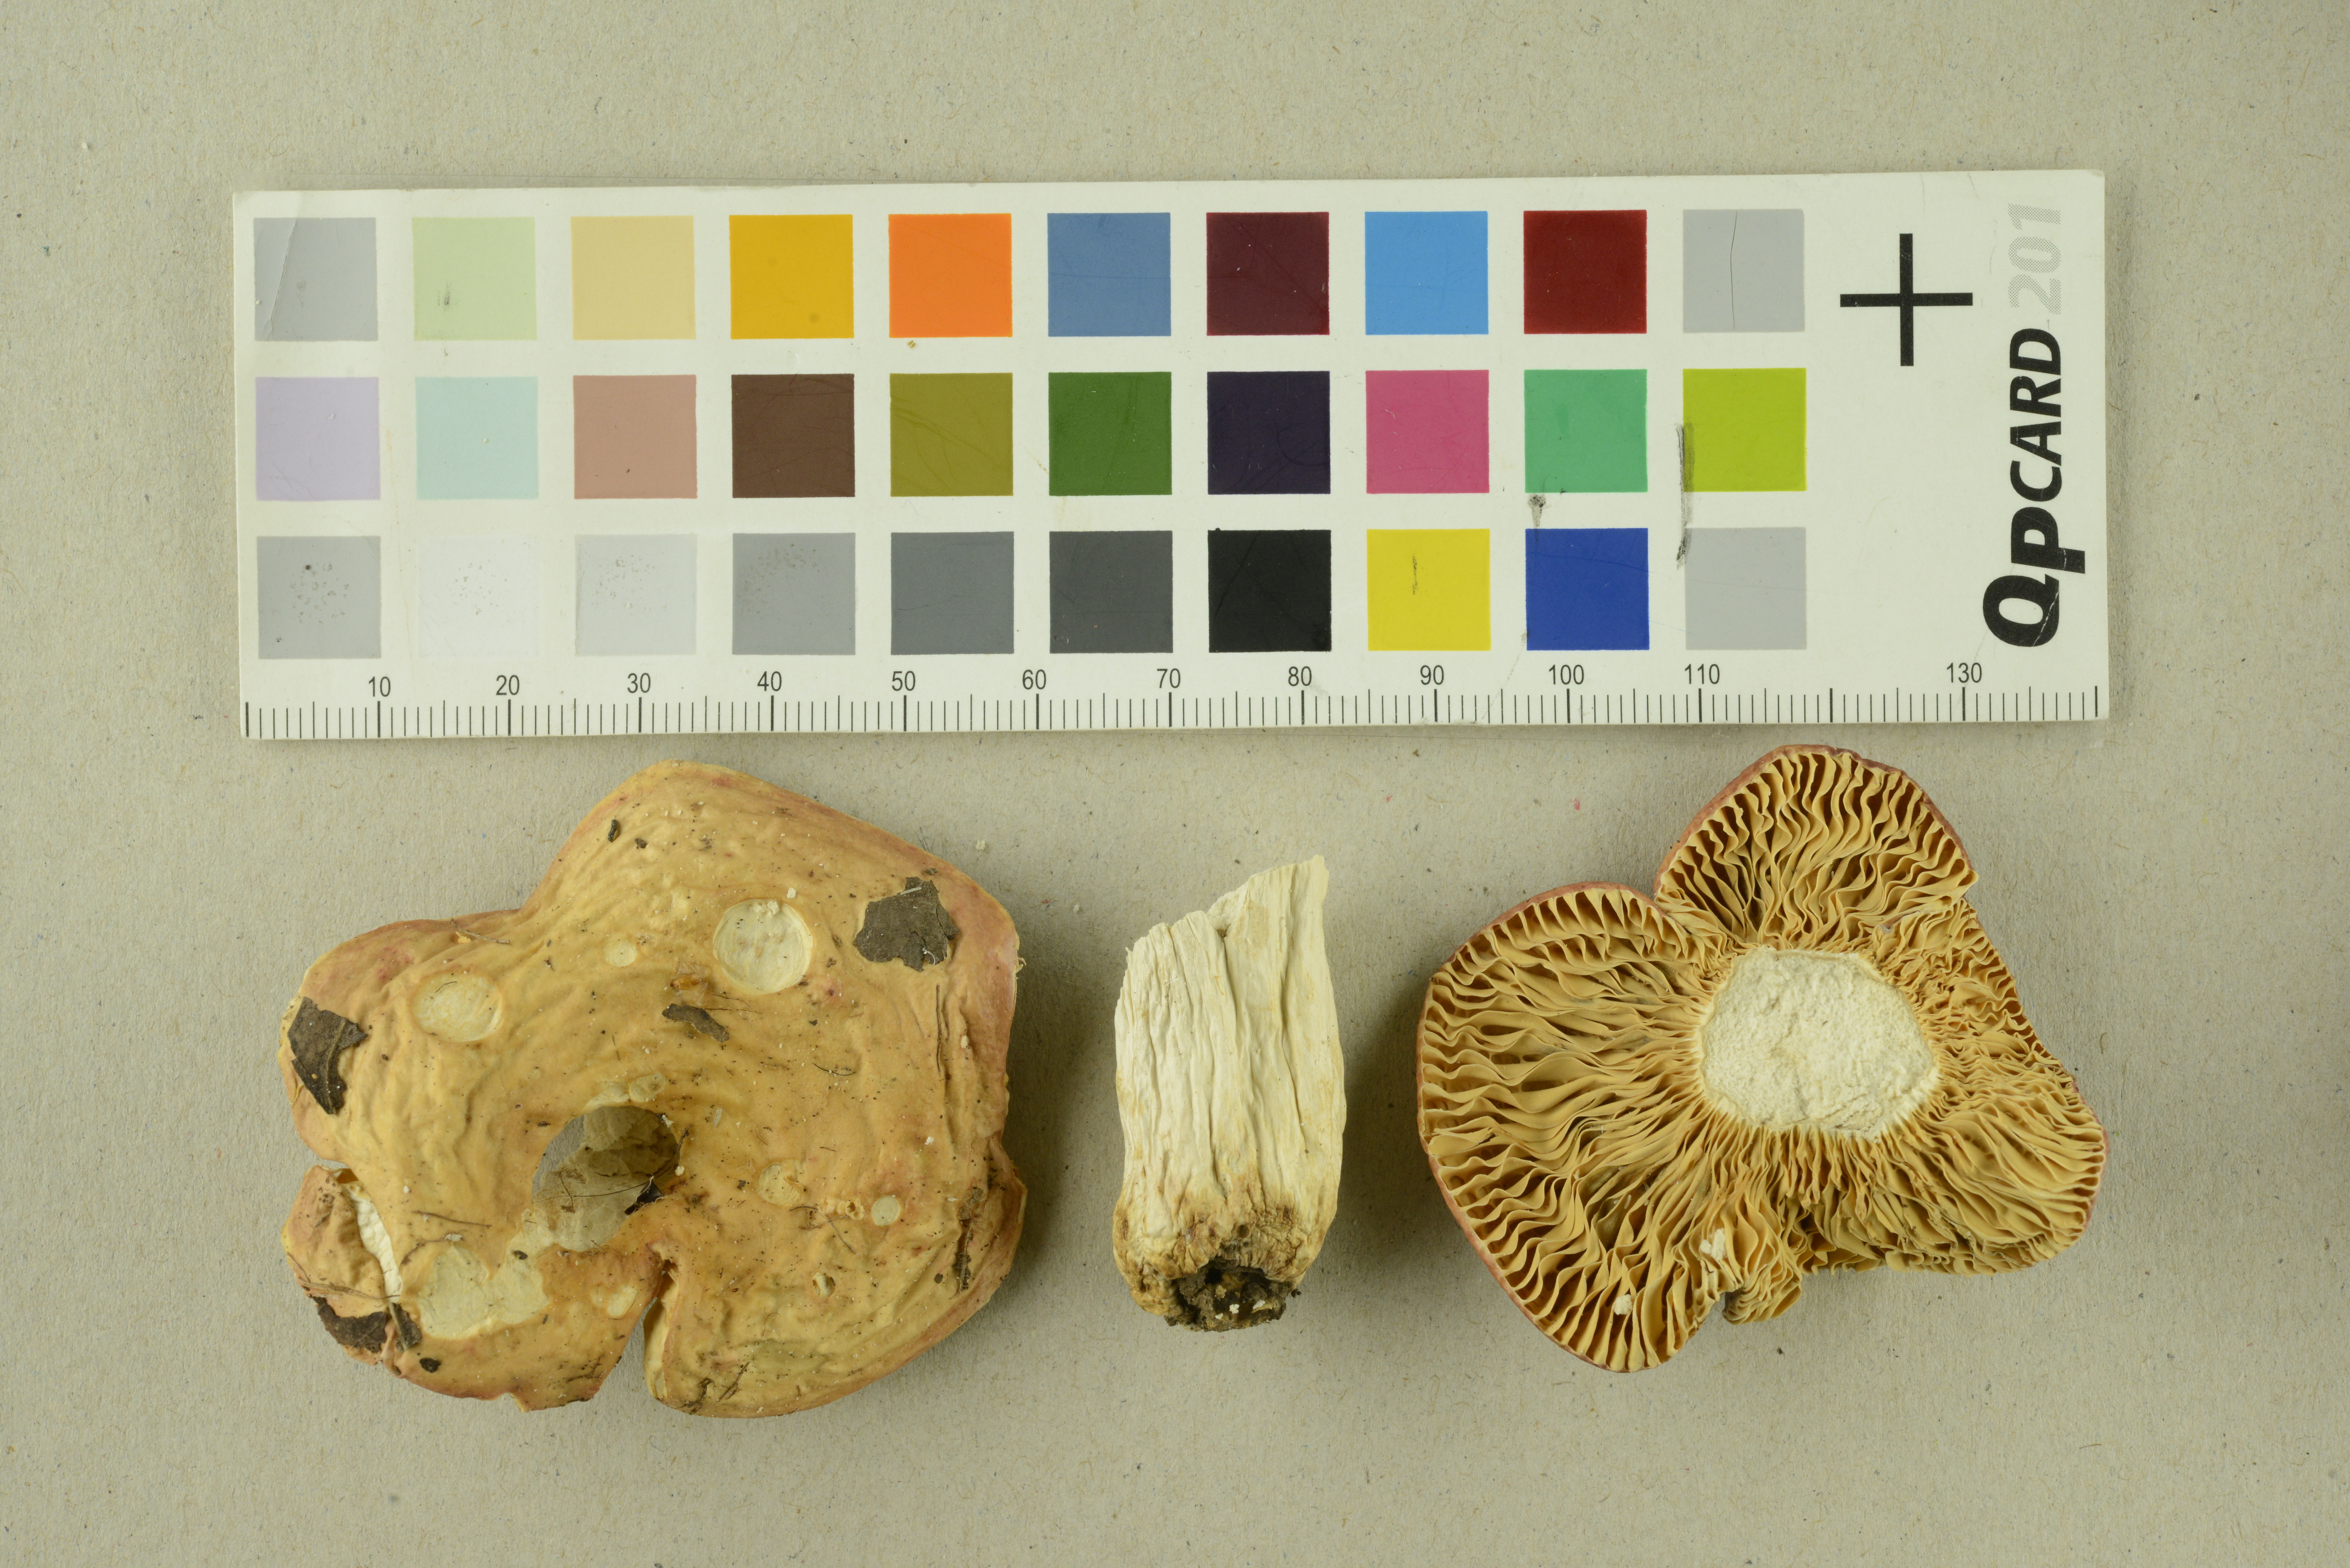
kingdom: Fungi
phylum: Basidiomycota
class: Agaricomycetes
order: Russulales
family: Russulaceae
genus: Russula
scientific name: Russula maculata
